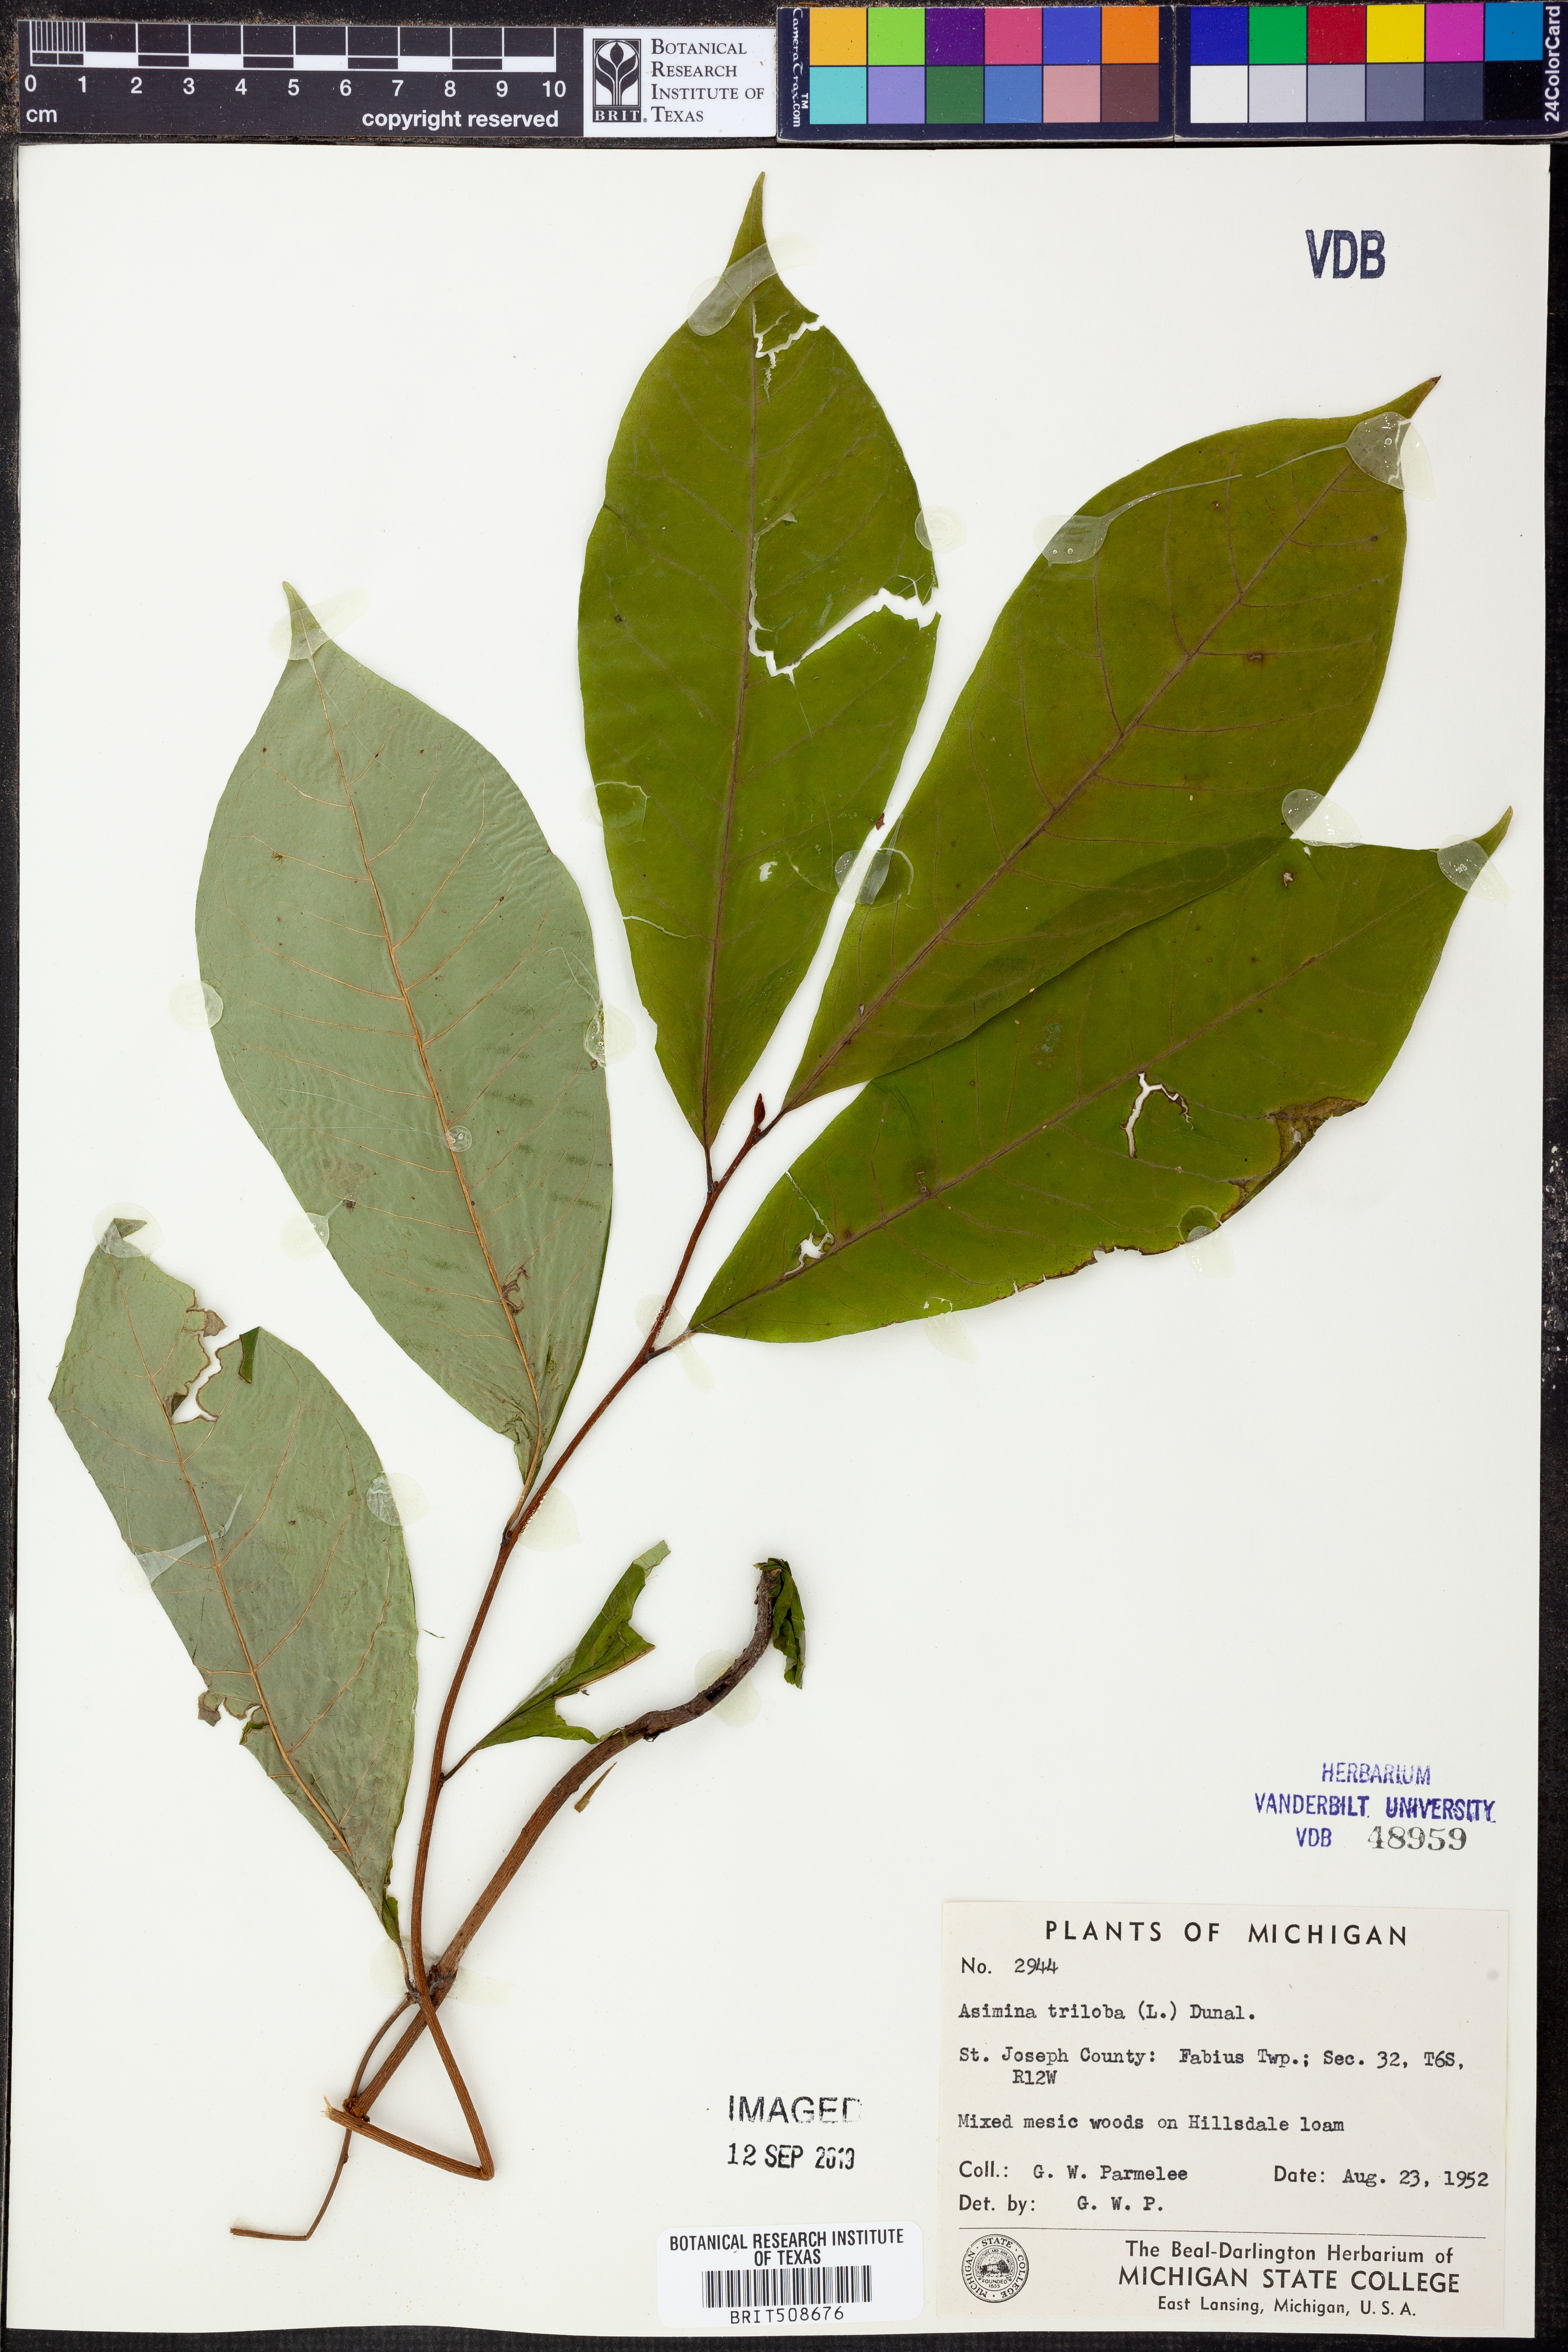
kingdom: Plantae
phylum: Tracheophyta
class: Magnoliopsida
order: Magnoliales
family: Annonaceae
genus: Asimina
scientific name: Asimina triloba
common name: Dog-banana
